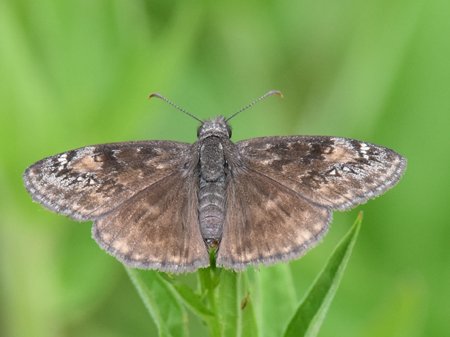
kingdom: Animalia
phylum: Arthropoda
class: Insecta
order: Lepidoptera
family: Hesperiidae
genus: Gesta
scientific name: Gesta
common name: Wild Indigo Duskywing
